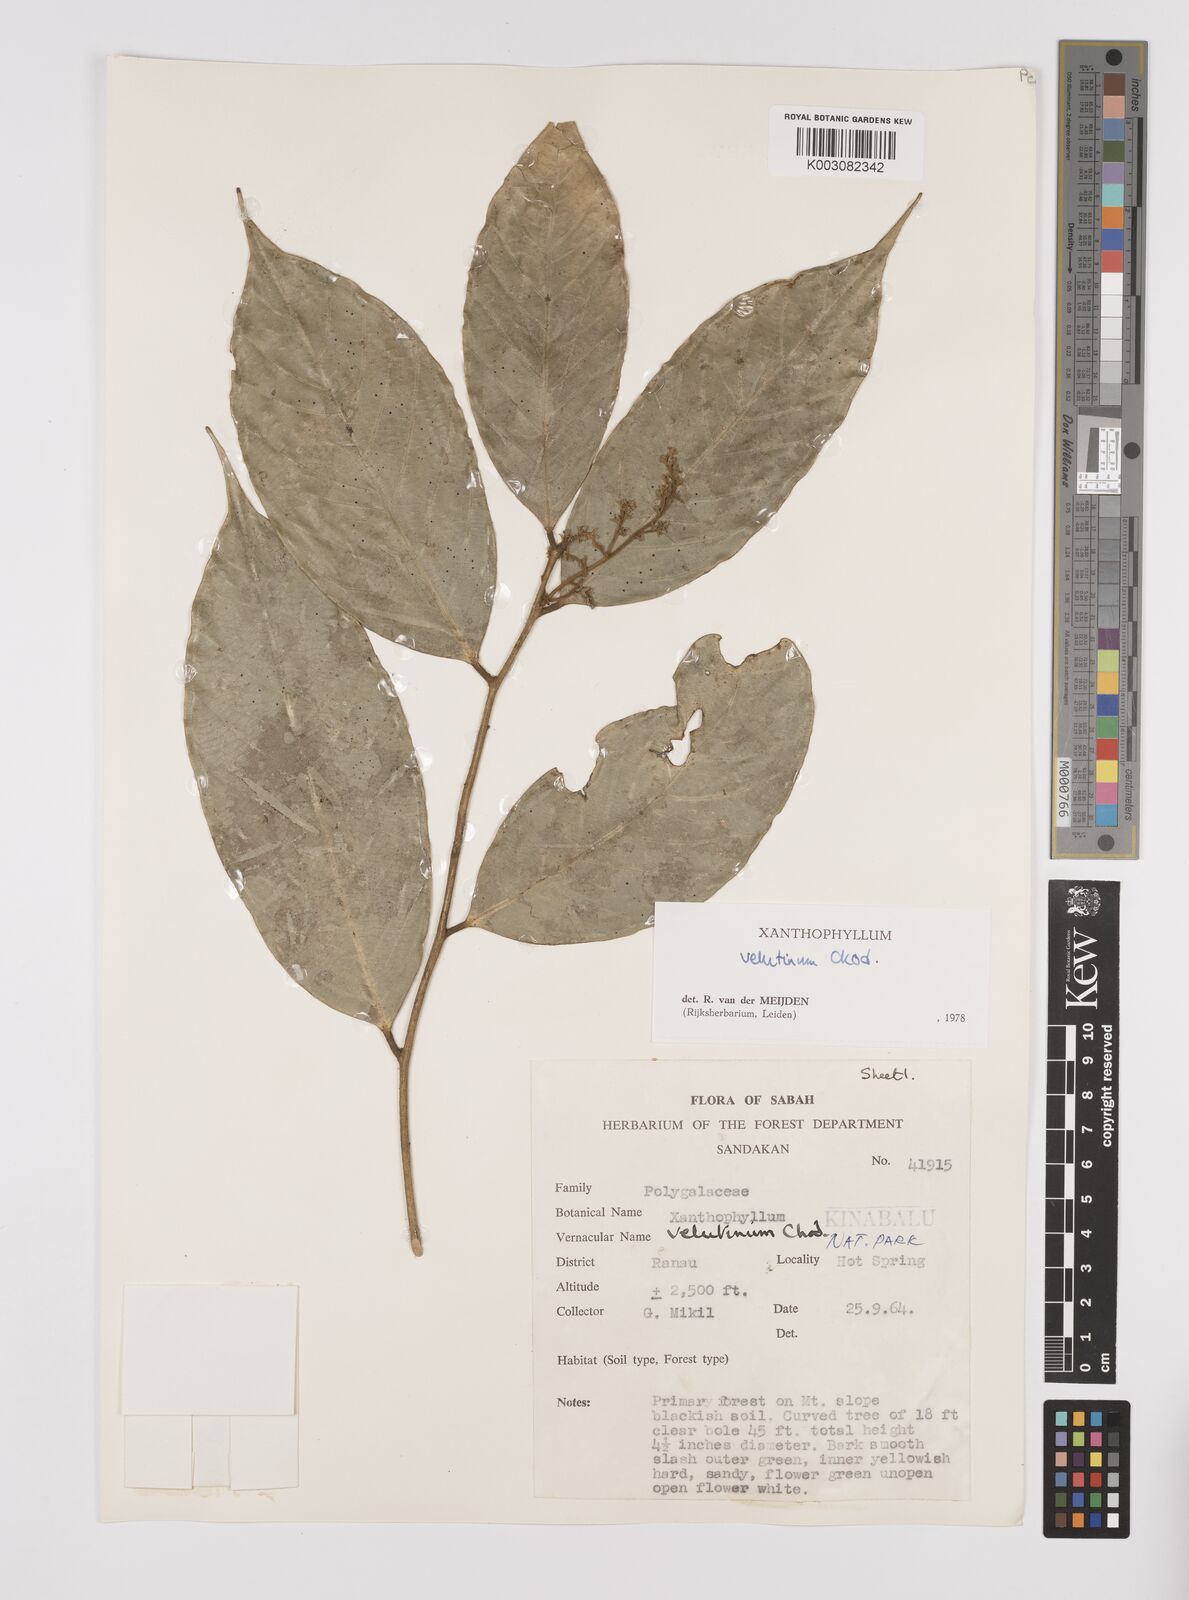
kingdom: Plantae
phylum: Tracheophyta
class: Magnoliopsida
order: Fabales
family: Polygalaceae
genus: Xanthophyllum
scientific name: Xanthophyllum velutinum
